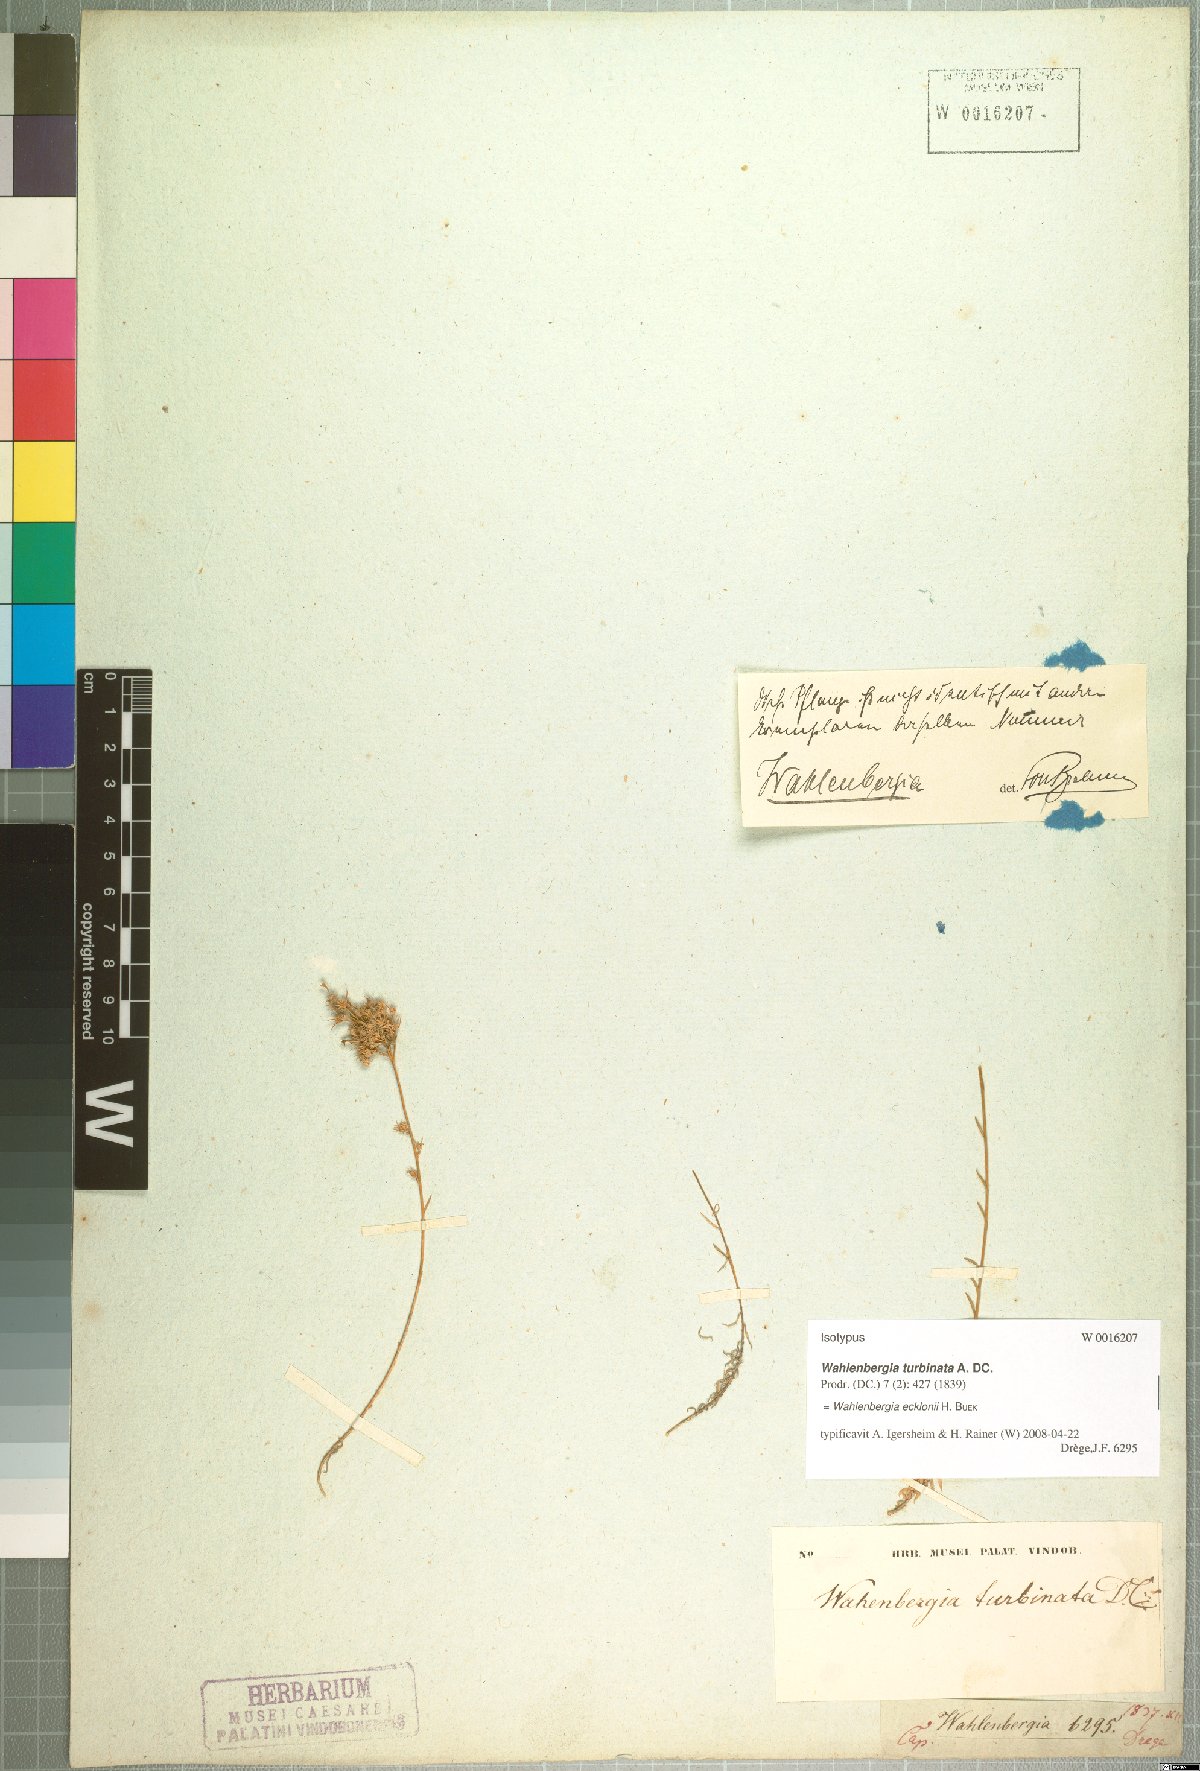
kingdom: Plantae
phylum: Tracheophyta
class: Magnoliopsida
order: Asterales
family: Campanulaceae
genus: Wahlenbergia
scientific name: Wahlenbergia ecklonii
